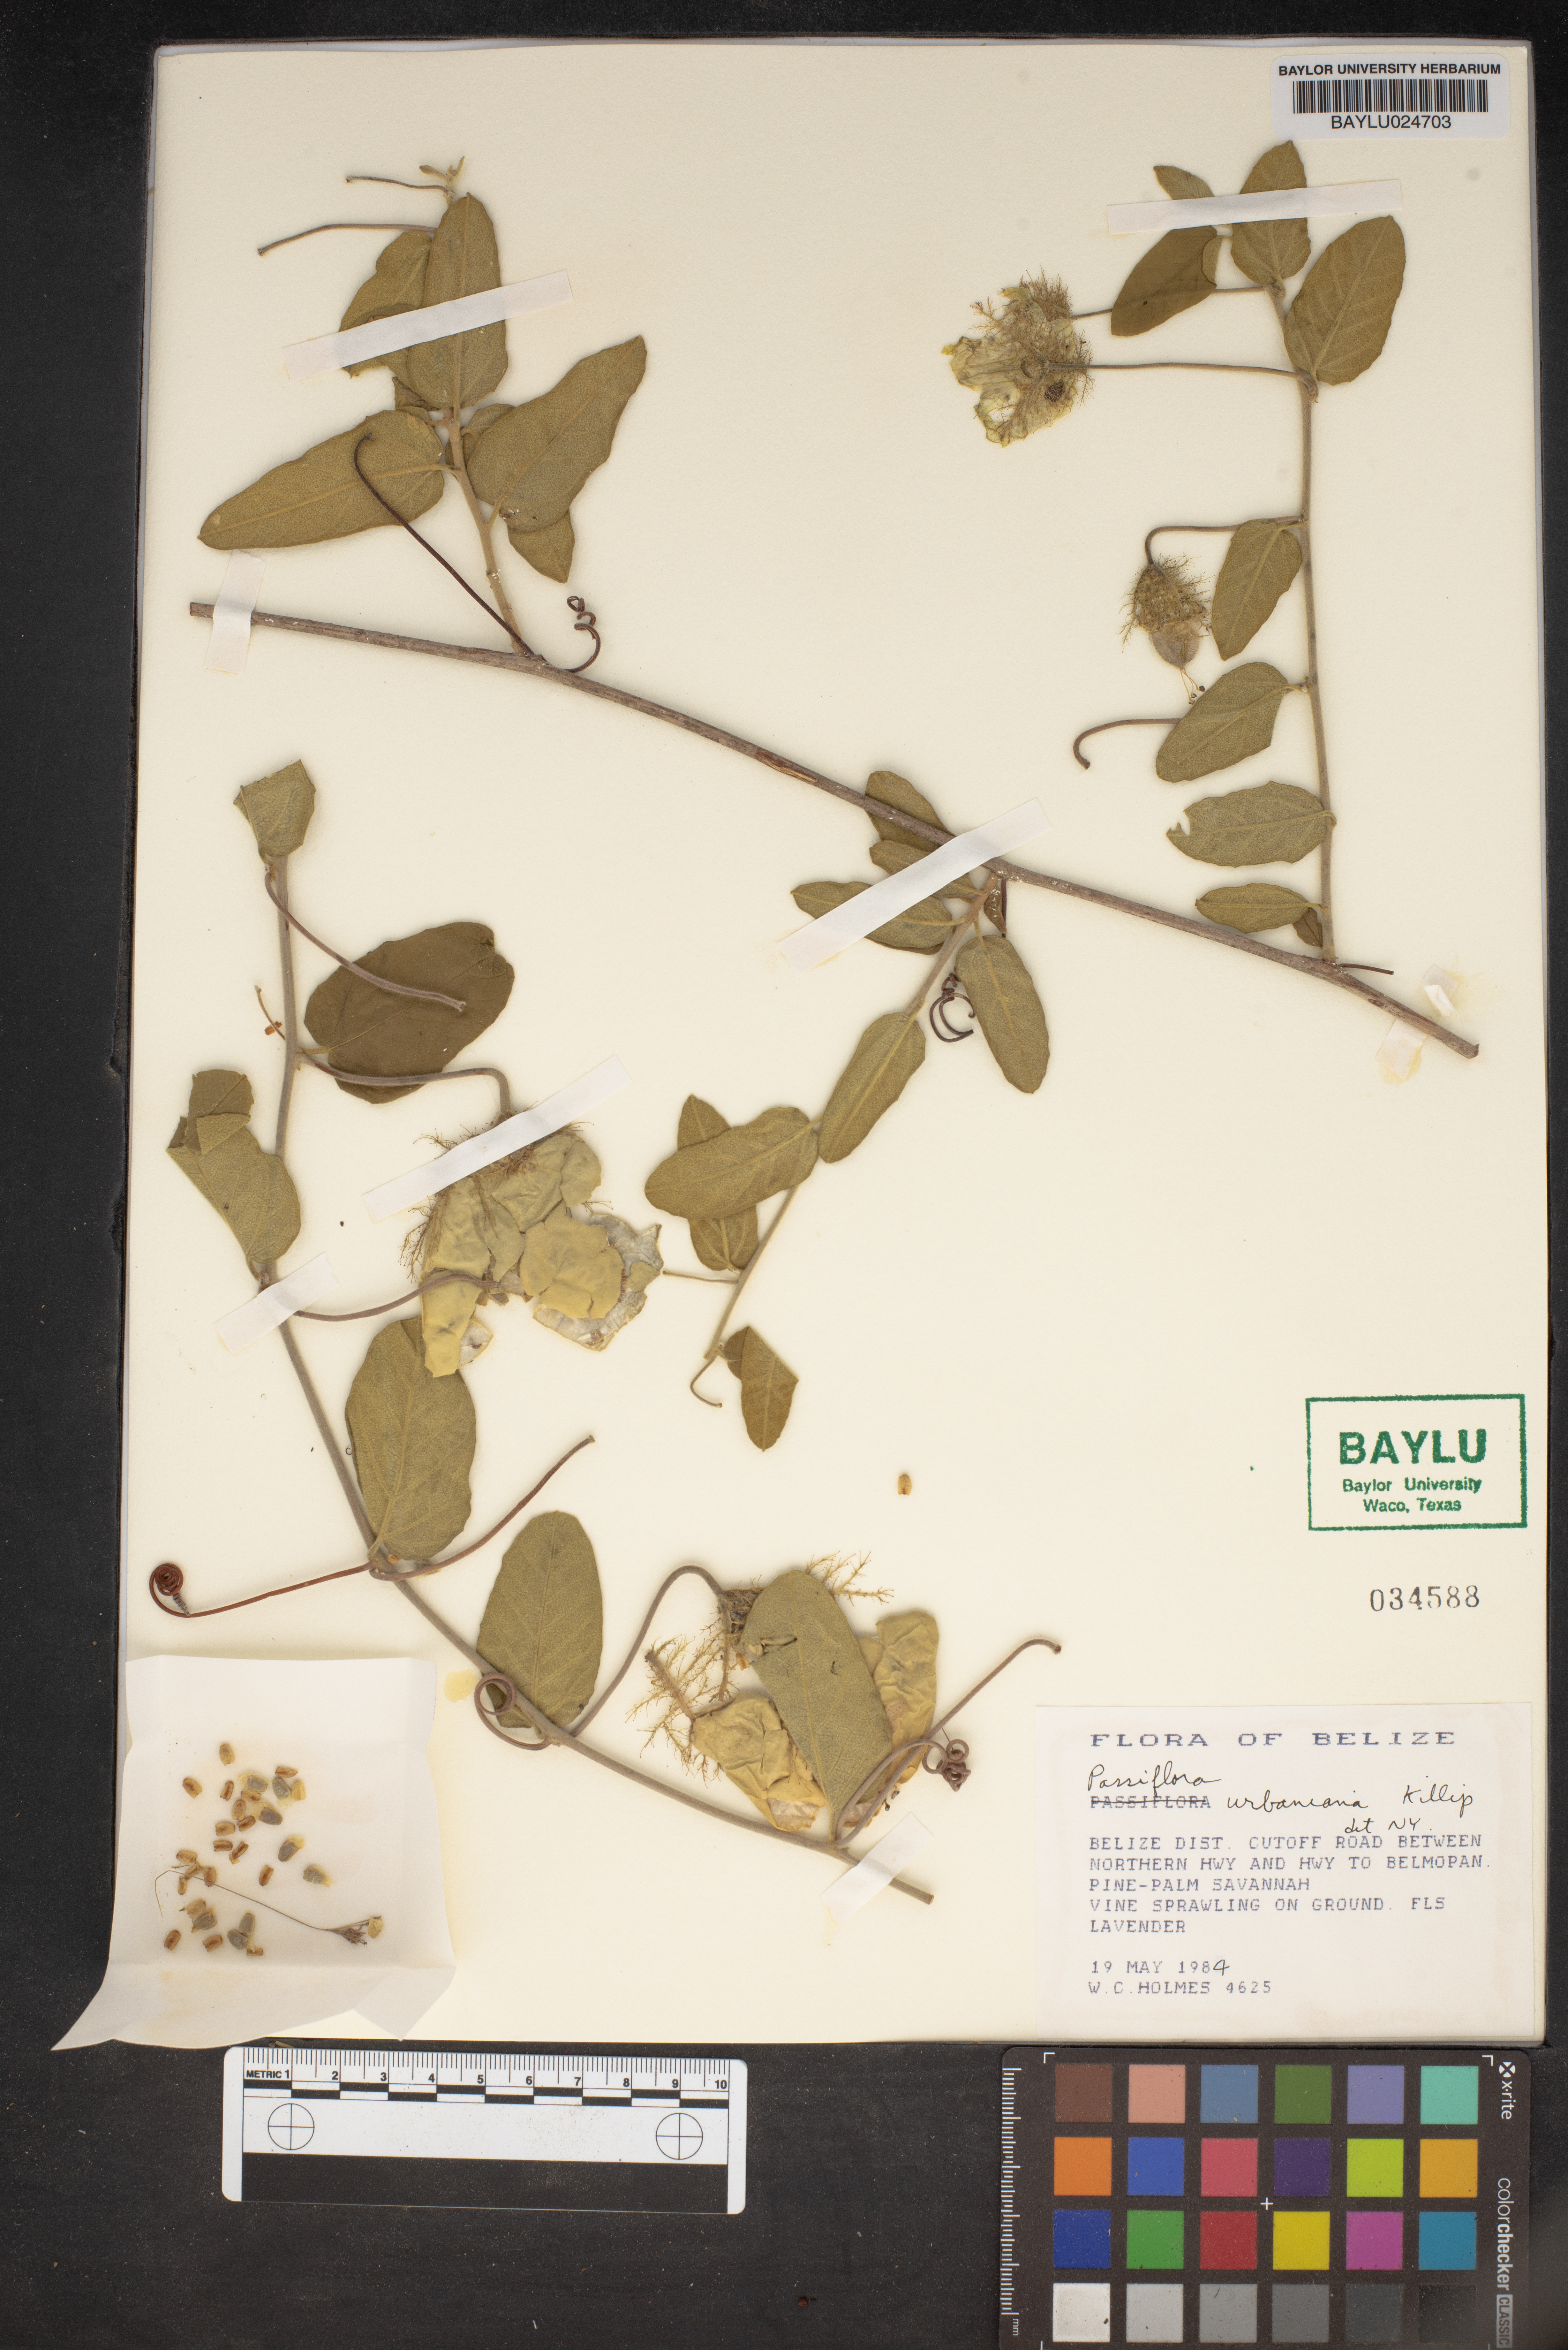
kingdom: Plantae
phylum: Tracheophyta
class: Magnoliopsida
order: Malpighiales
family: Passifloraceae
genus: Passiflora
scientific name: Passiflora urbaniana
